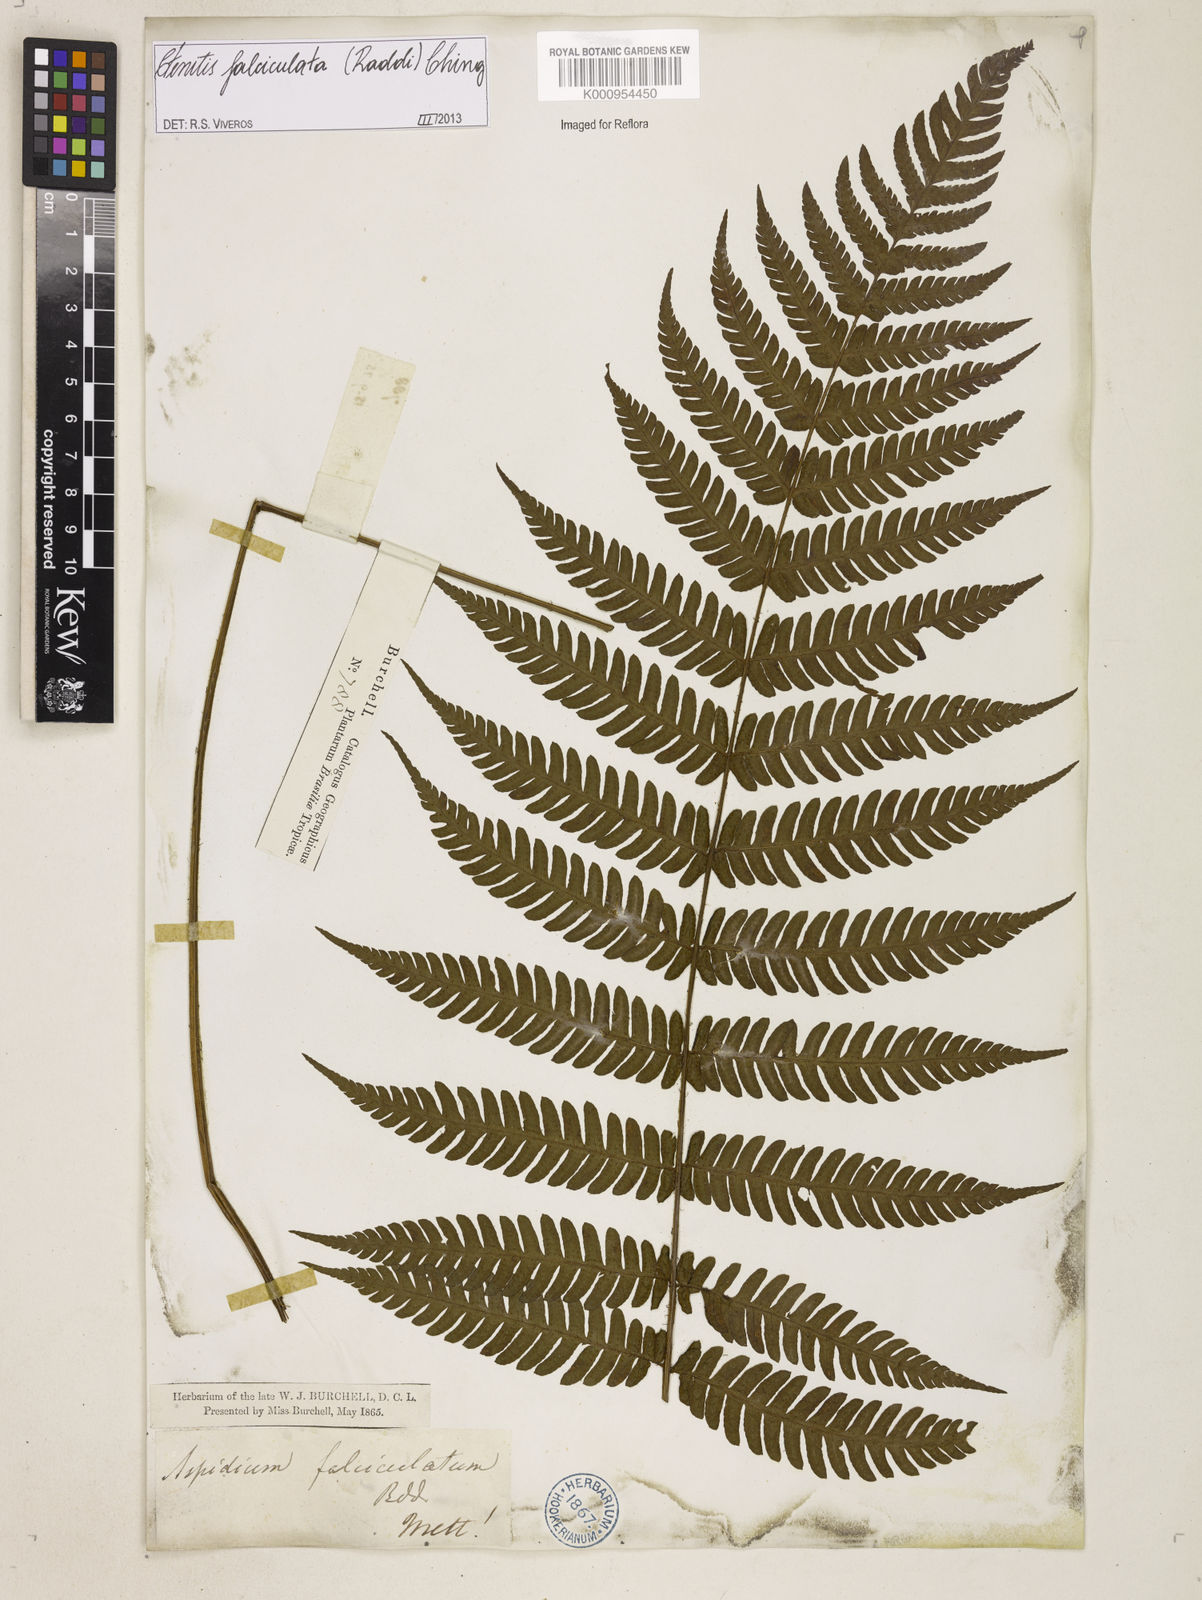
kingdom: Plantae
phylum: Tracheophyta
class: Polypodiopsida
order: Polypodiales
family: Dryopteridaceae
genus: Ctenitis
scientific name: Ctenitis falciculata
